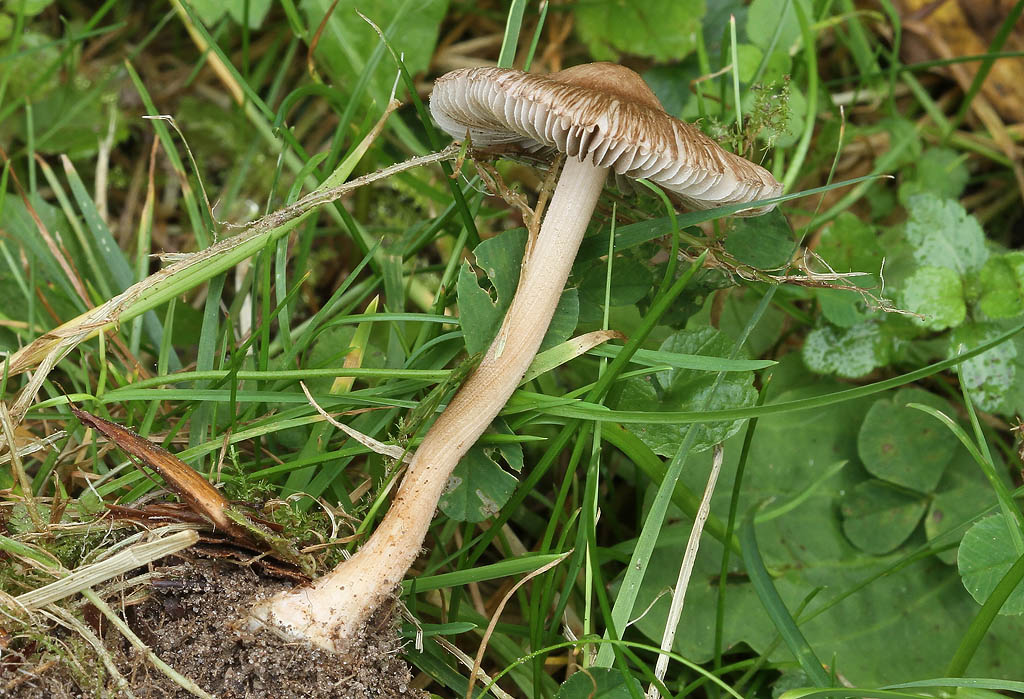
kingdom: Fungi
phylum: Basidiomycota
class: Agaricomycetes
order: Agaricales
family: Inocybaceae
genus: Inocybe
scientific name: Inocybe asterospora
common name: stjernesporet trævlhat
